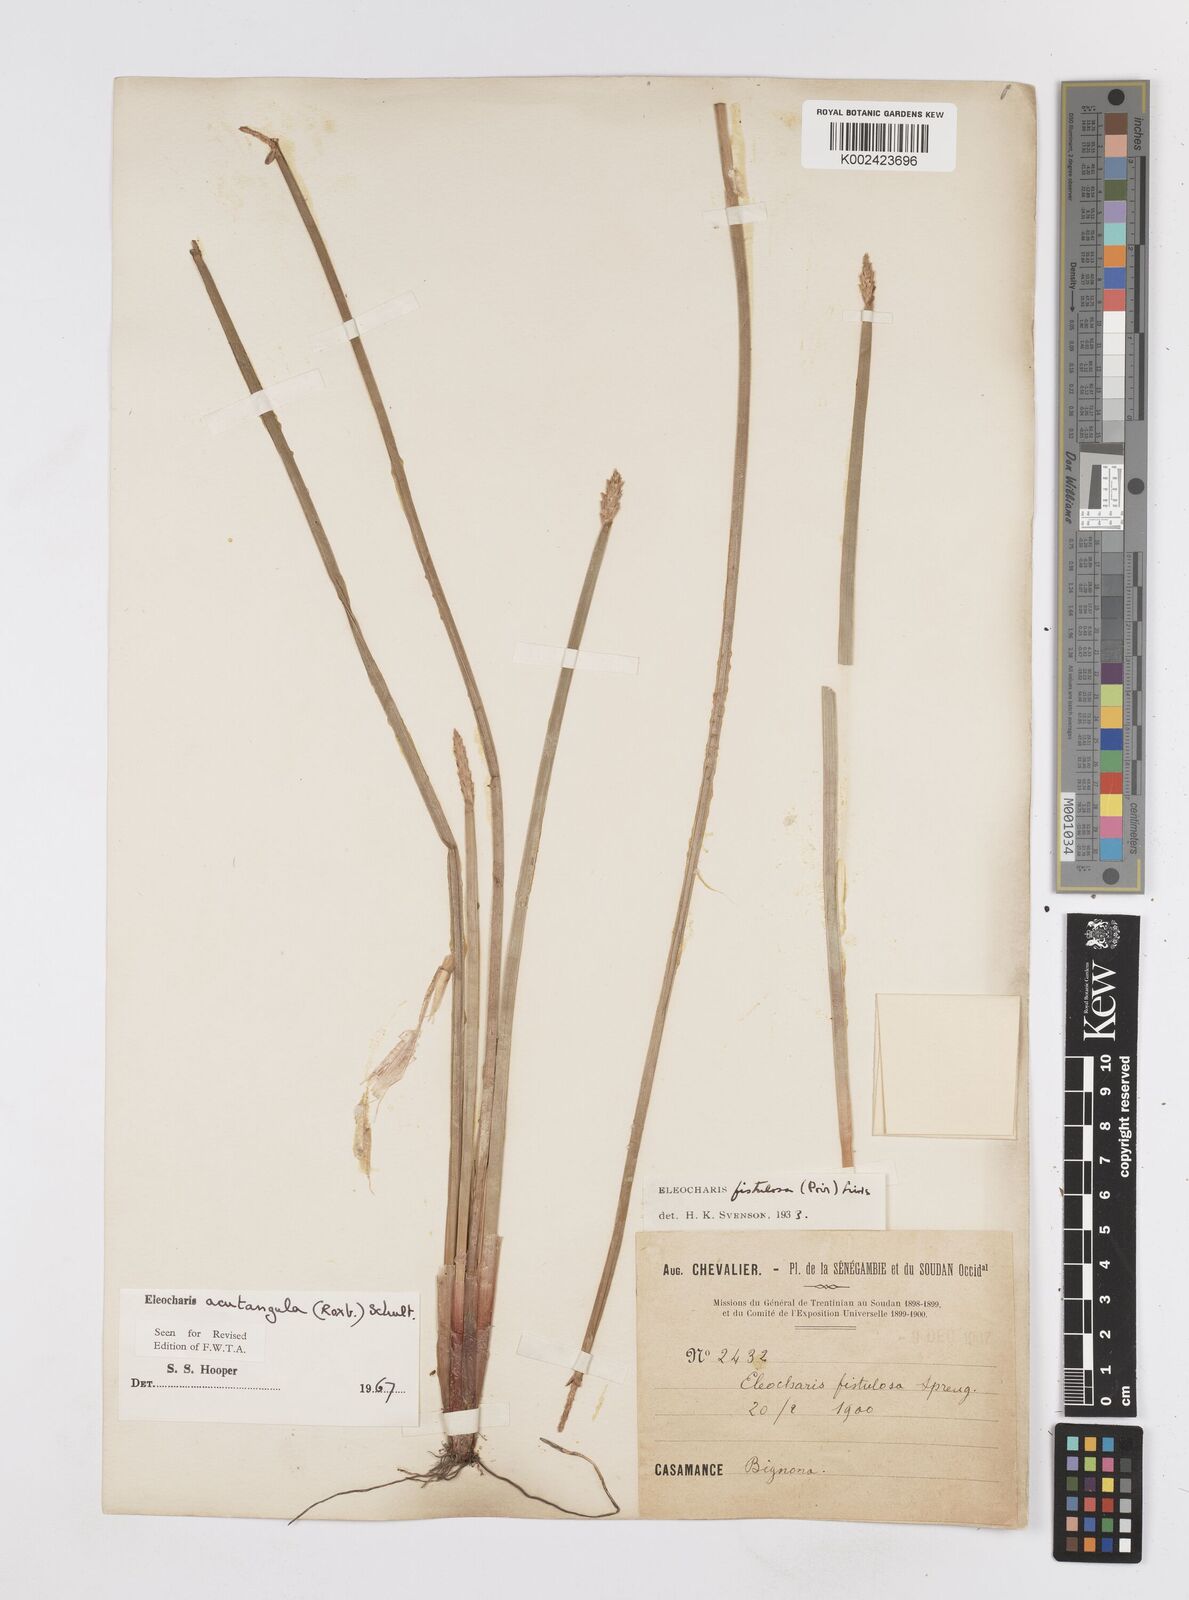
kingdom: Plantae
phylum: Tracheophyta
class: Liliopsida
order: Poales
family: Cyperaceae
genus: Eleocharis
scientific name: Eleocharis acutangula
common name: Acute spikerush
